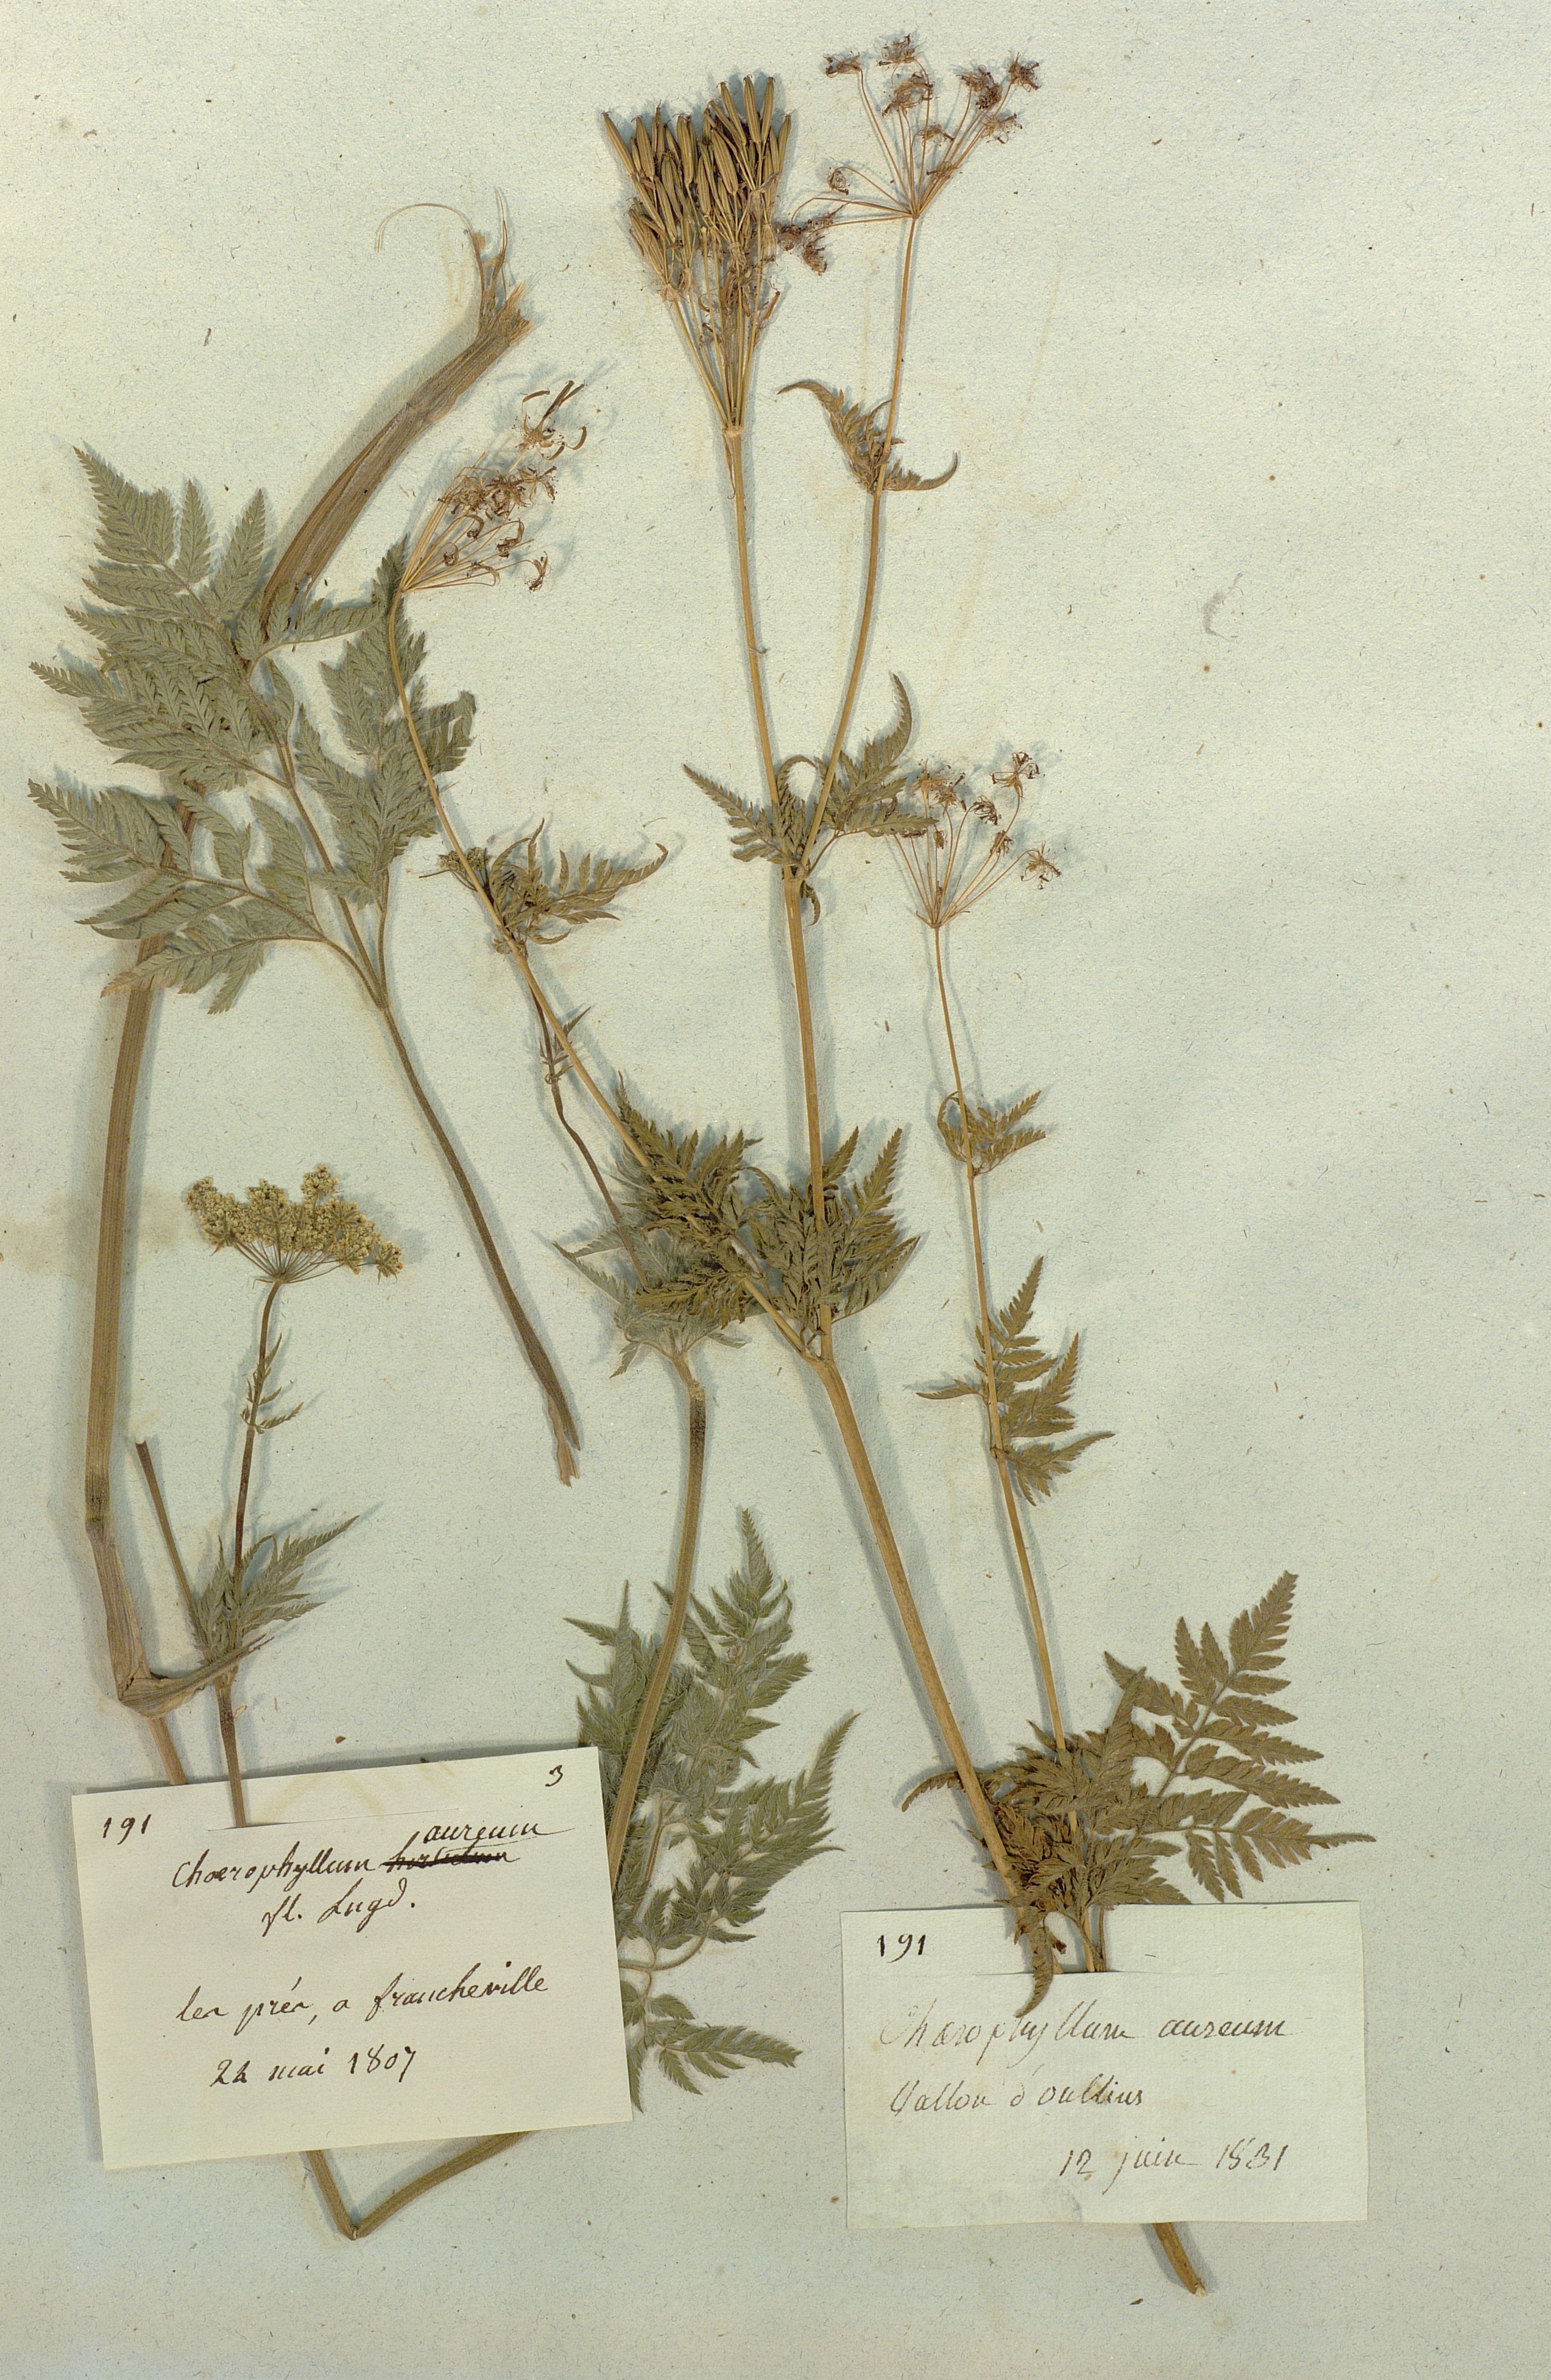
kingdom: Plantae
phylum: Tracheophyta
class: Magnoliopsida
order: Apiales
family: Apiaceae
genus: Chaerophyllum
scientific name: Chaerophyllum aureum
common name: Golden chervil
